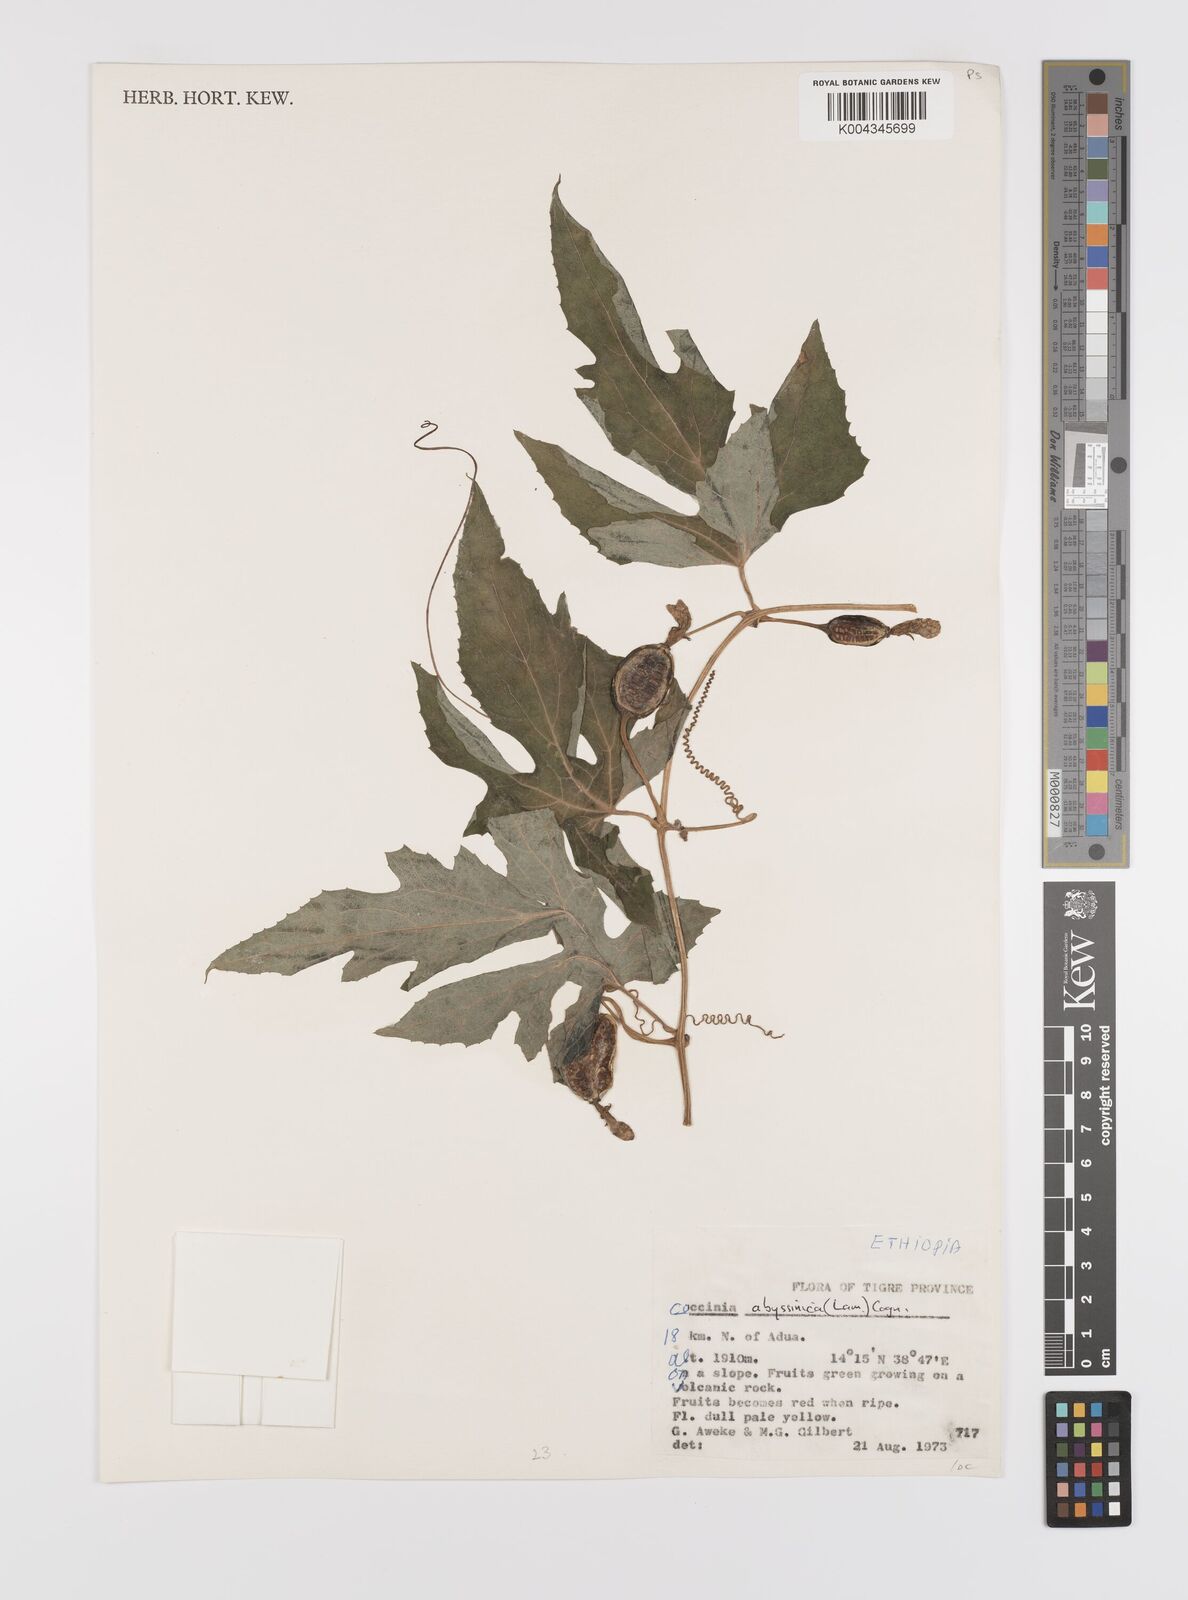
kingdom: Plantae
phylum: Tracheophyta
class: Magnoliopsida
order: Cucurbitales
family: Cucurbitaceae
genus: Coccinia
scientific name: Coccinia abyssinica
